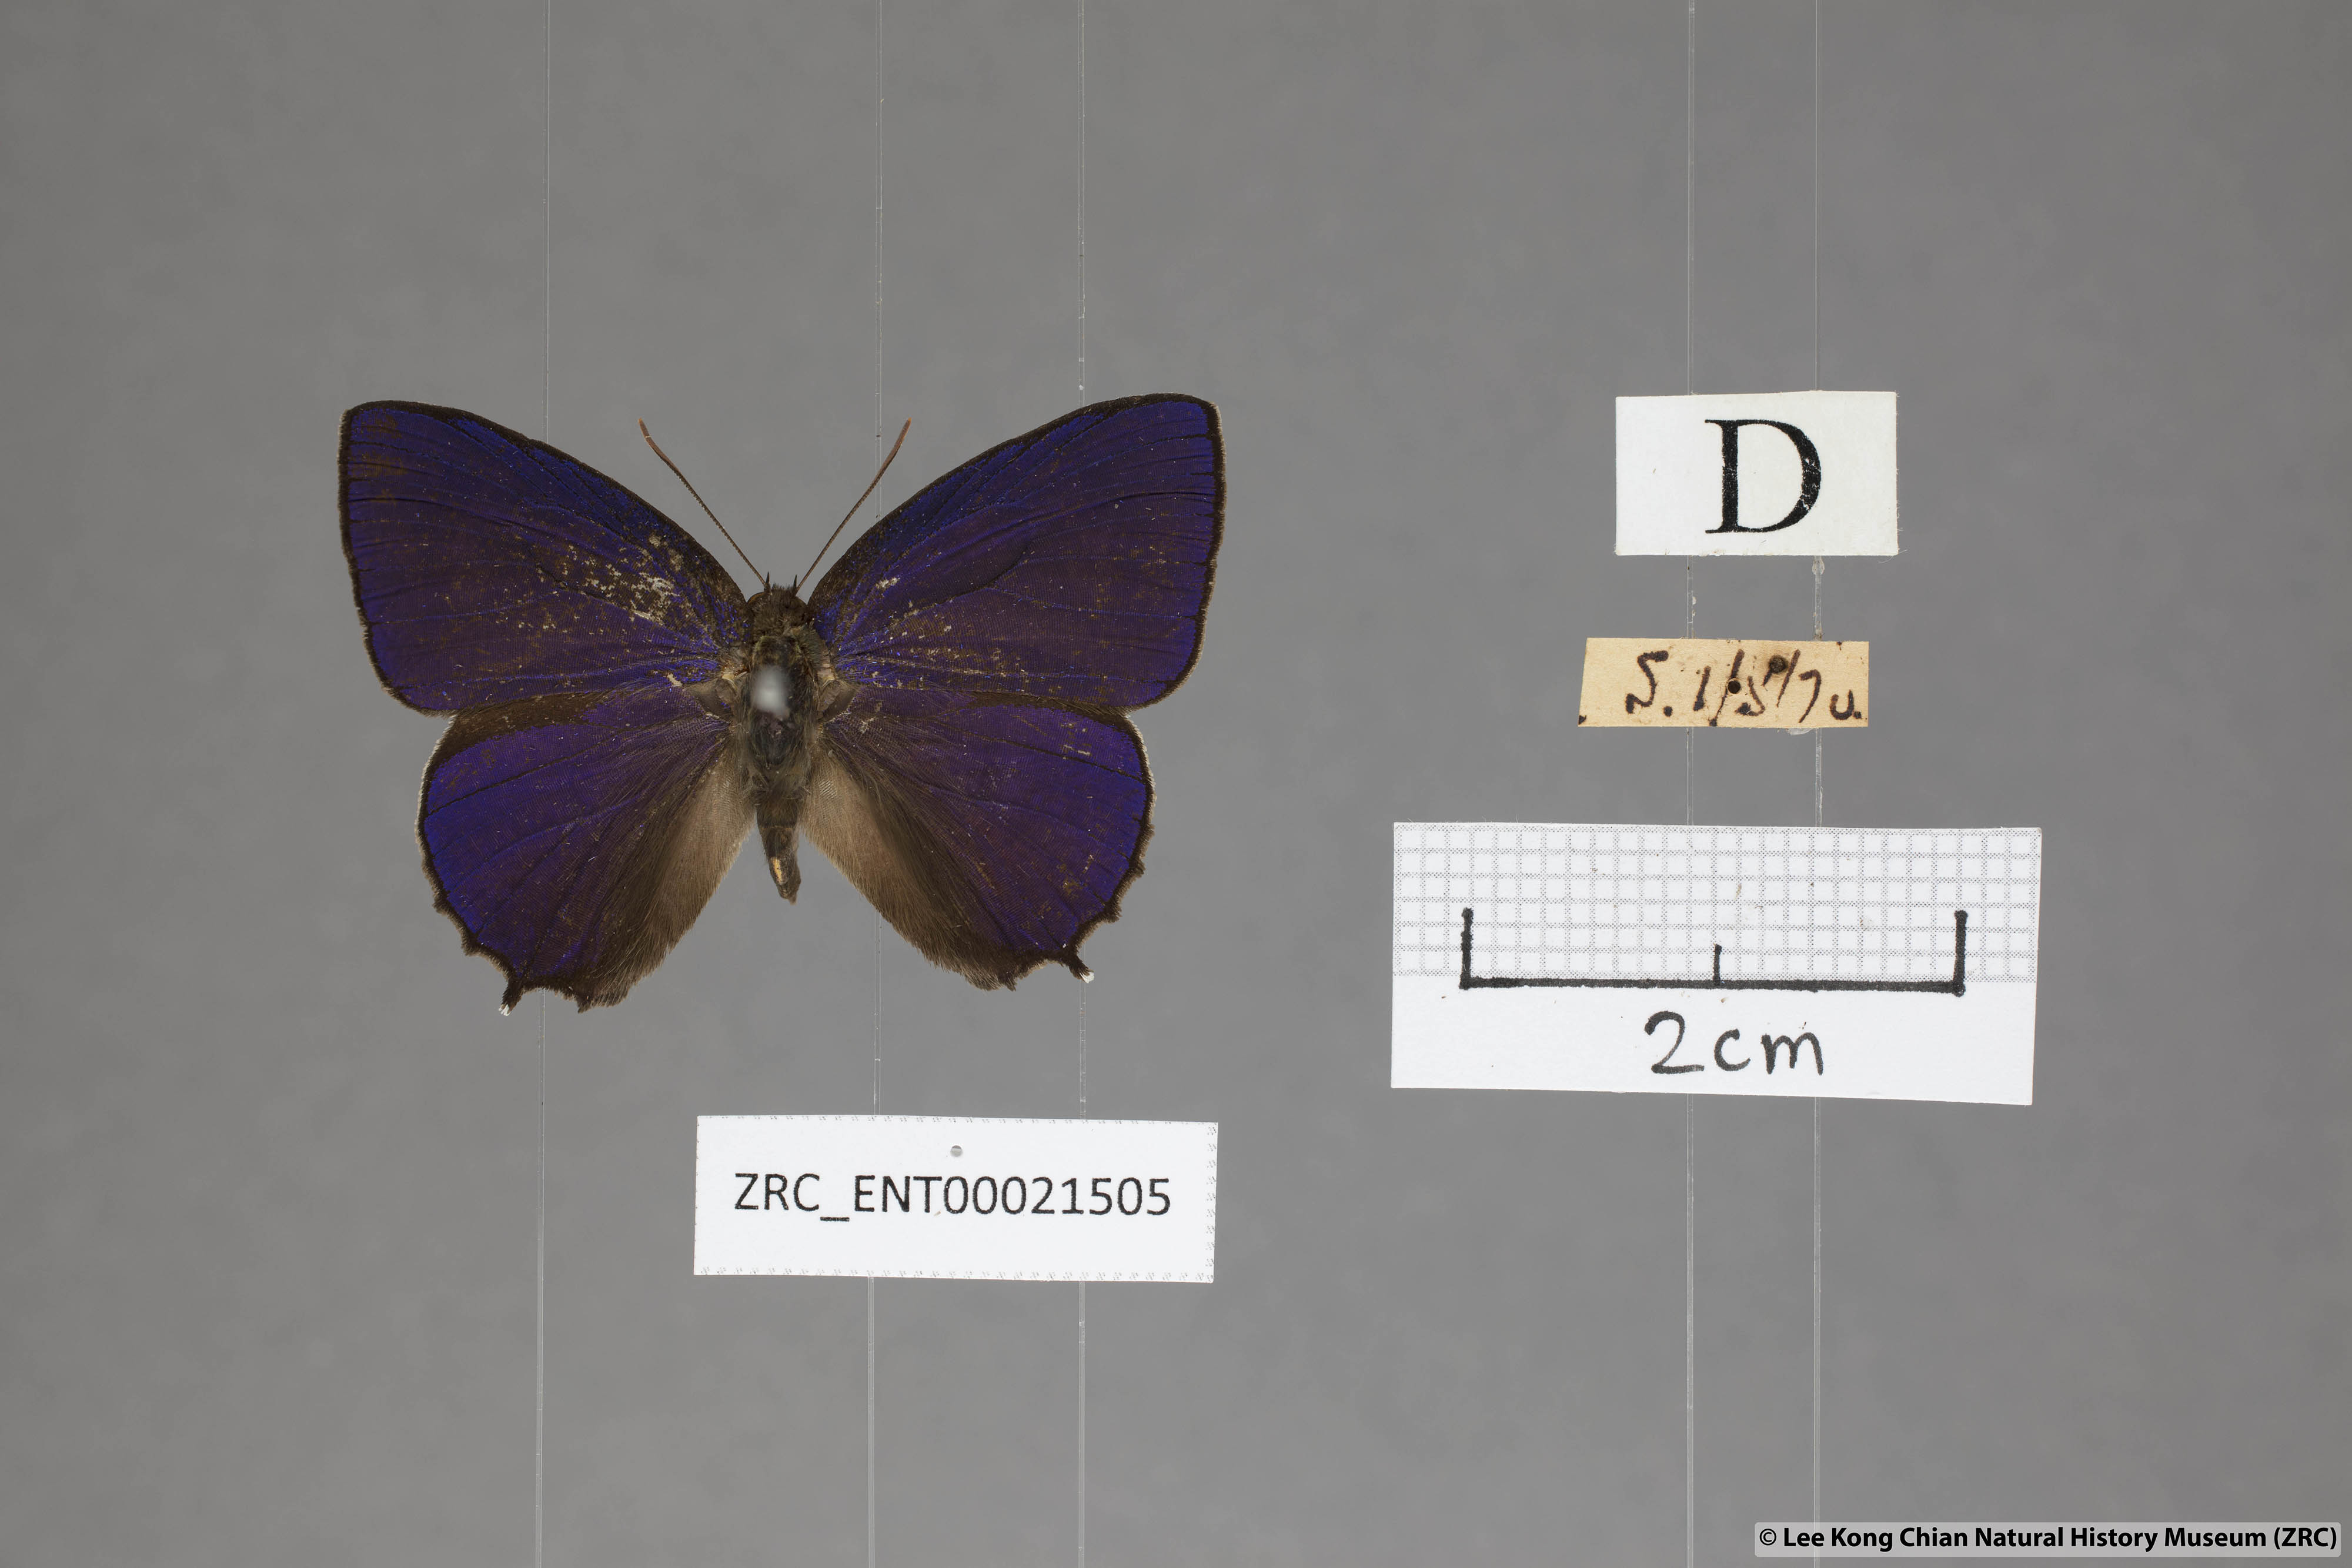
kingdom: Animalia
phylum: Arthropoda
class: Insecta
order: Lepidoptera
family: Lycaenidae
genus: Flos
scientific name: Flos
